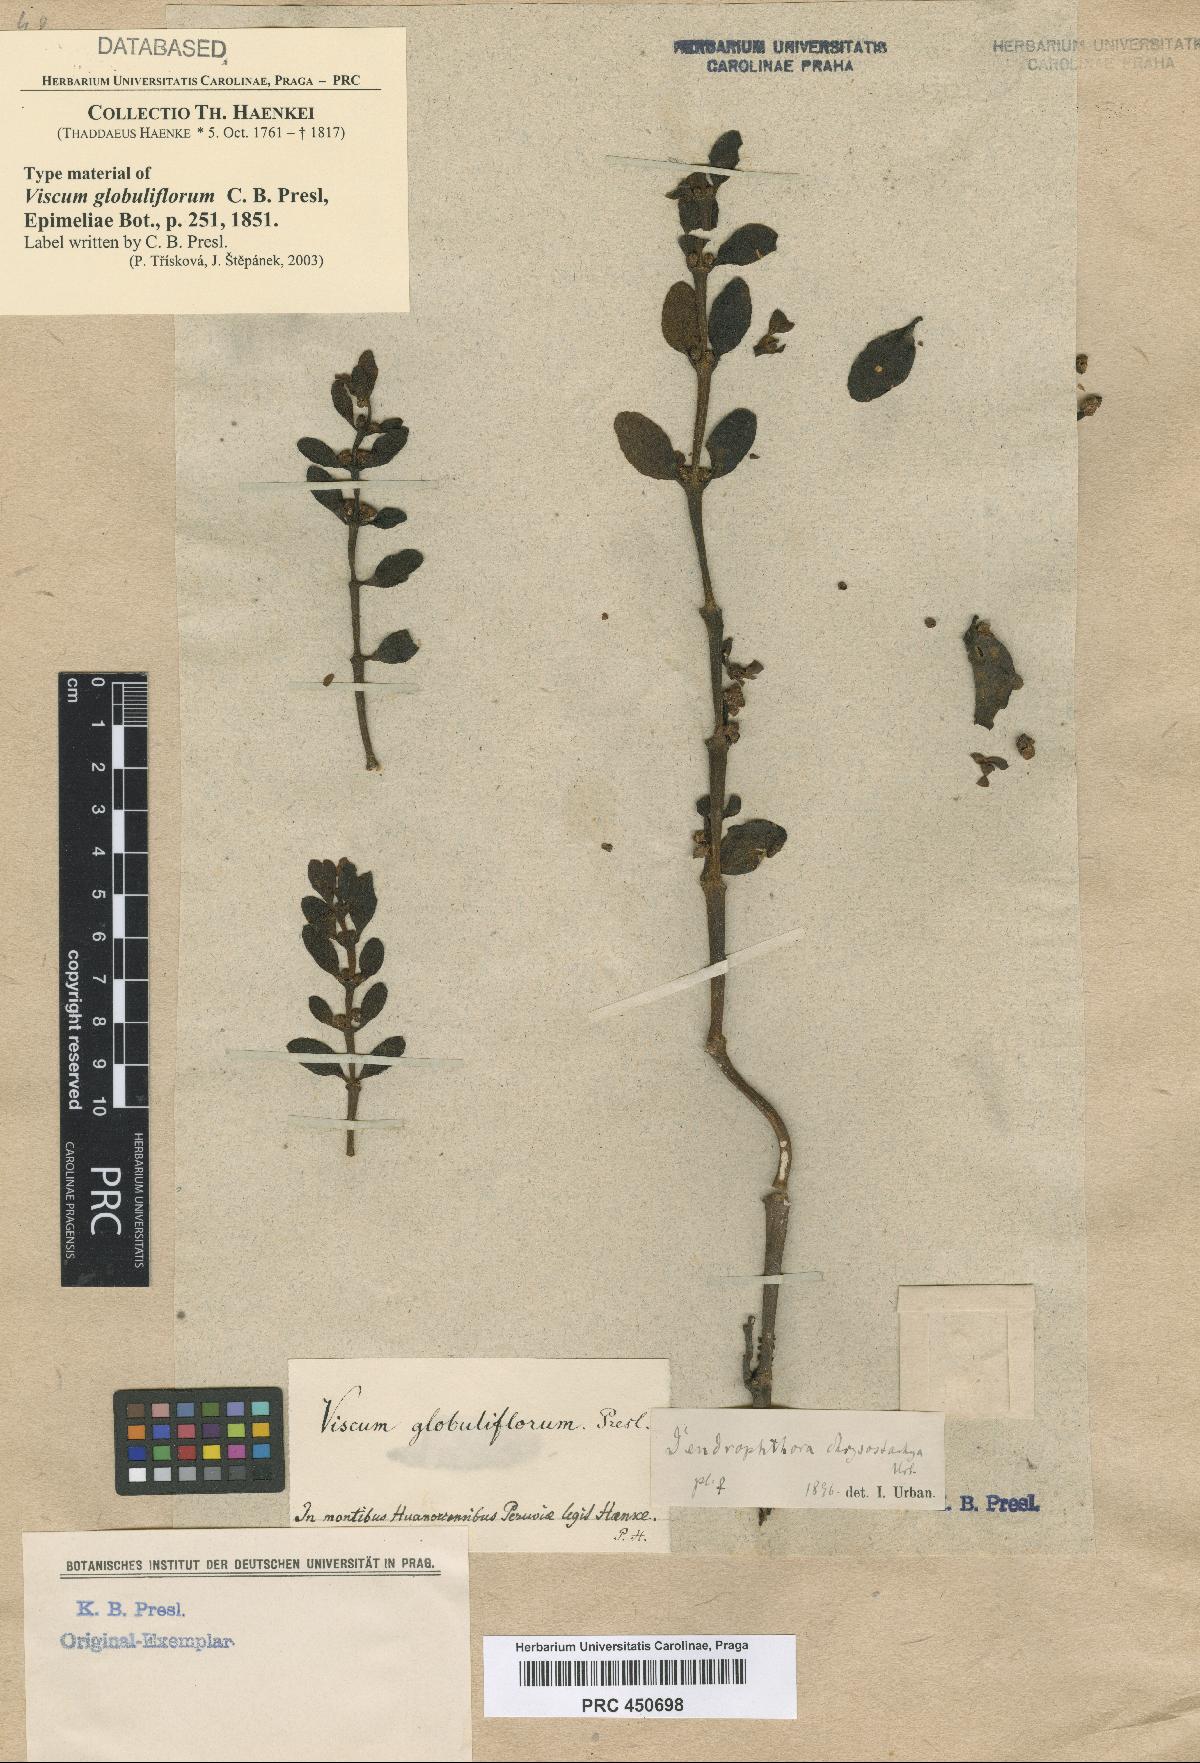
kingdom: Plantae
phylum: Tracheophyta
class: Magnoliopsida
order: Santalales
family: Viscaceae
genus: Dendrophthora
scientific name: Dendrophthora chrysostachya
